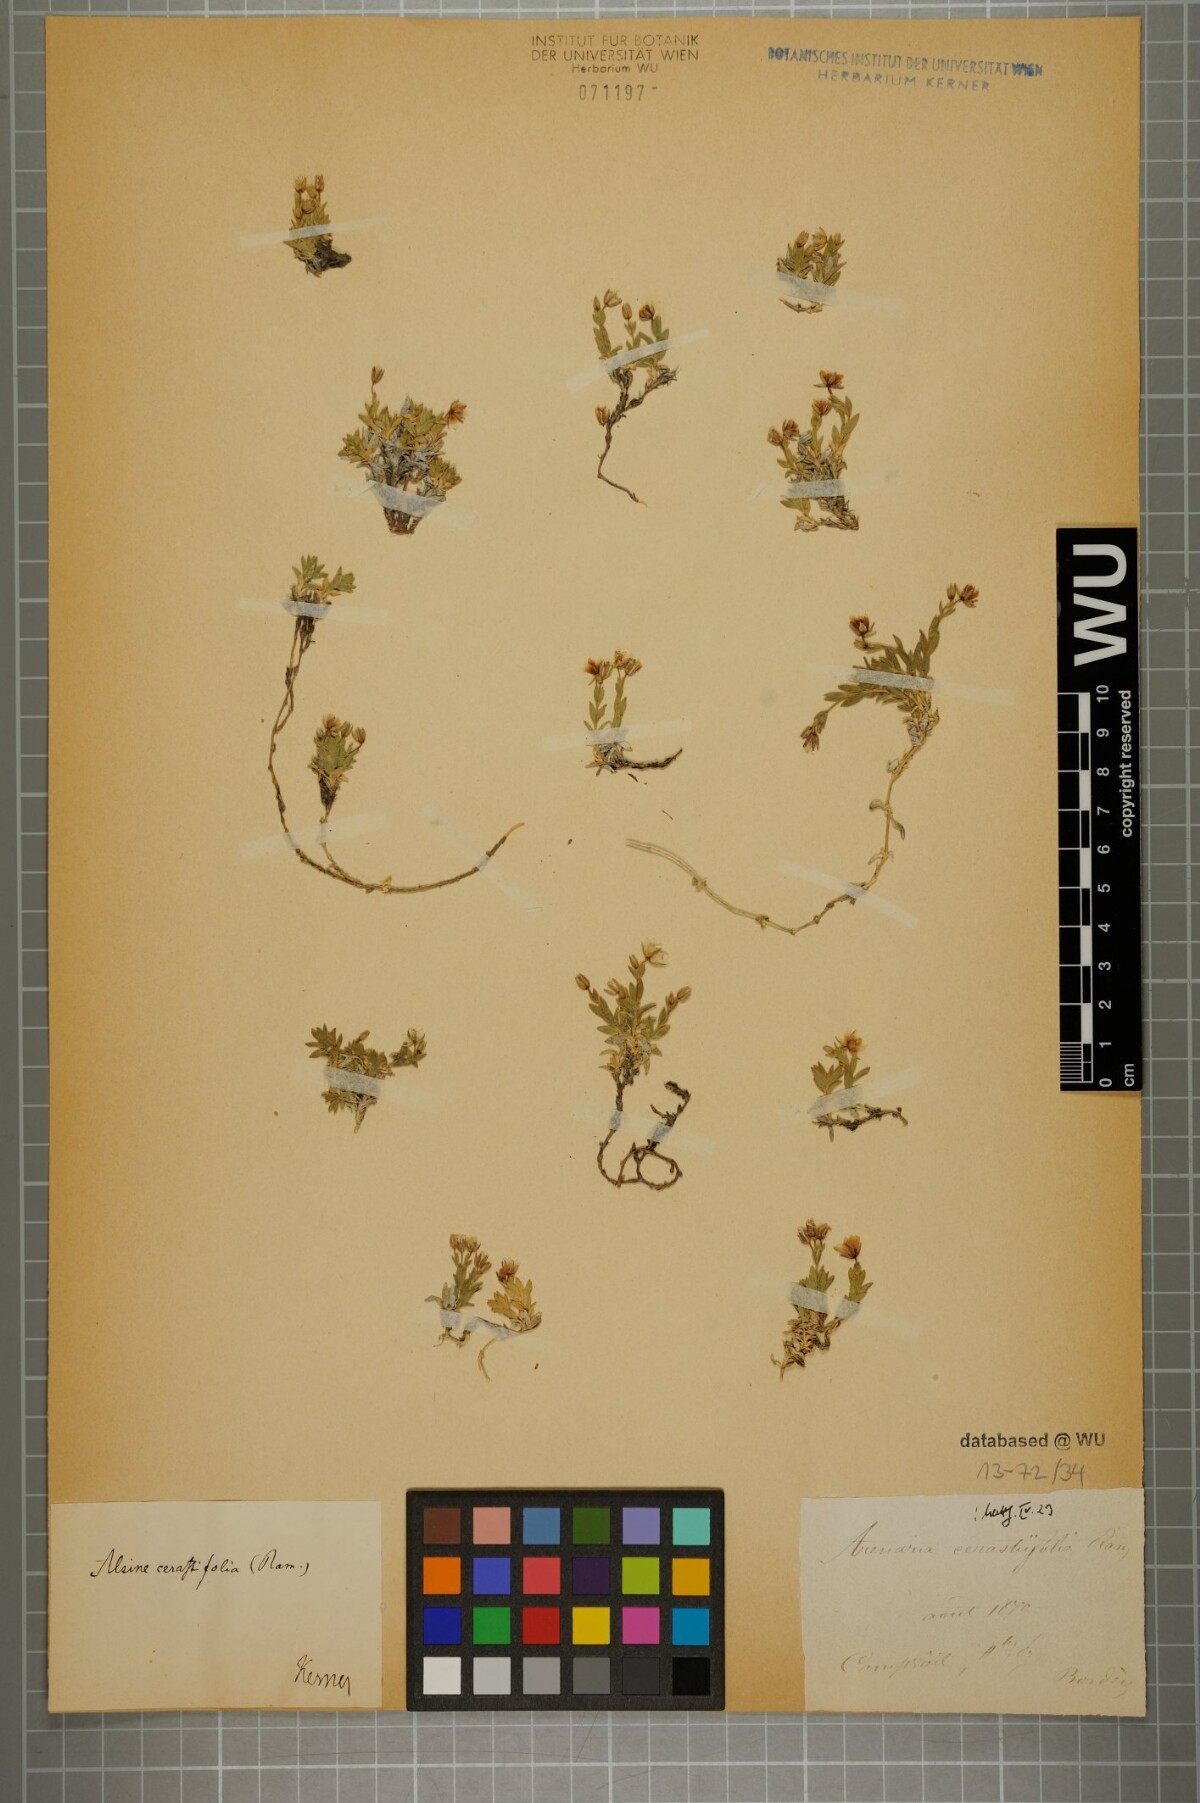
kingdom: Plantae
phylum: Tracheophyta
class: Magnoliopsida
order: Caryophyllales
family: Caryophyllaceae
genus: Facchinia
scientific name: Facchinia cerastiifolia
